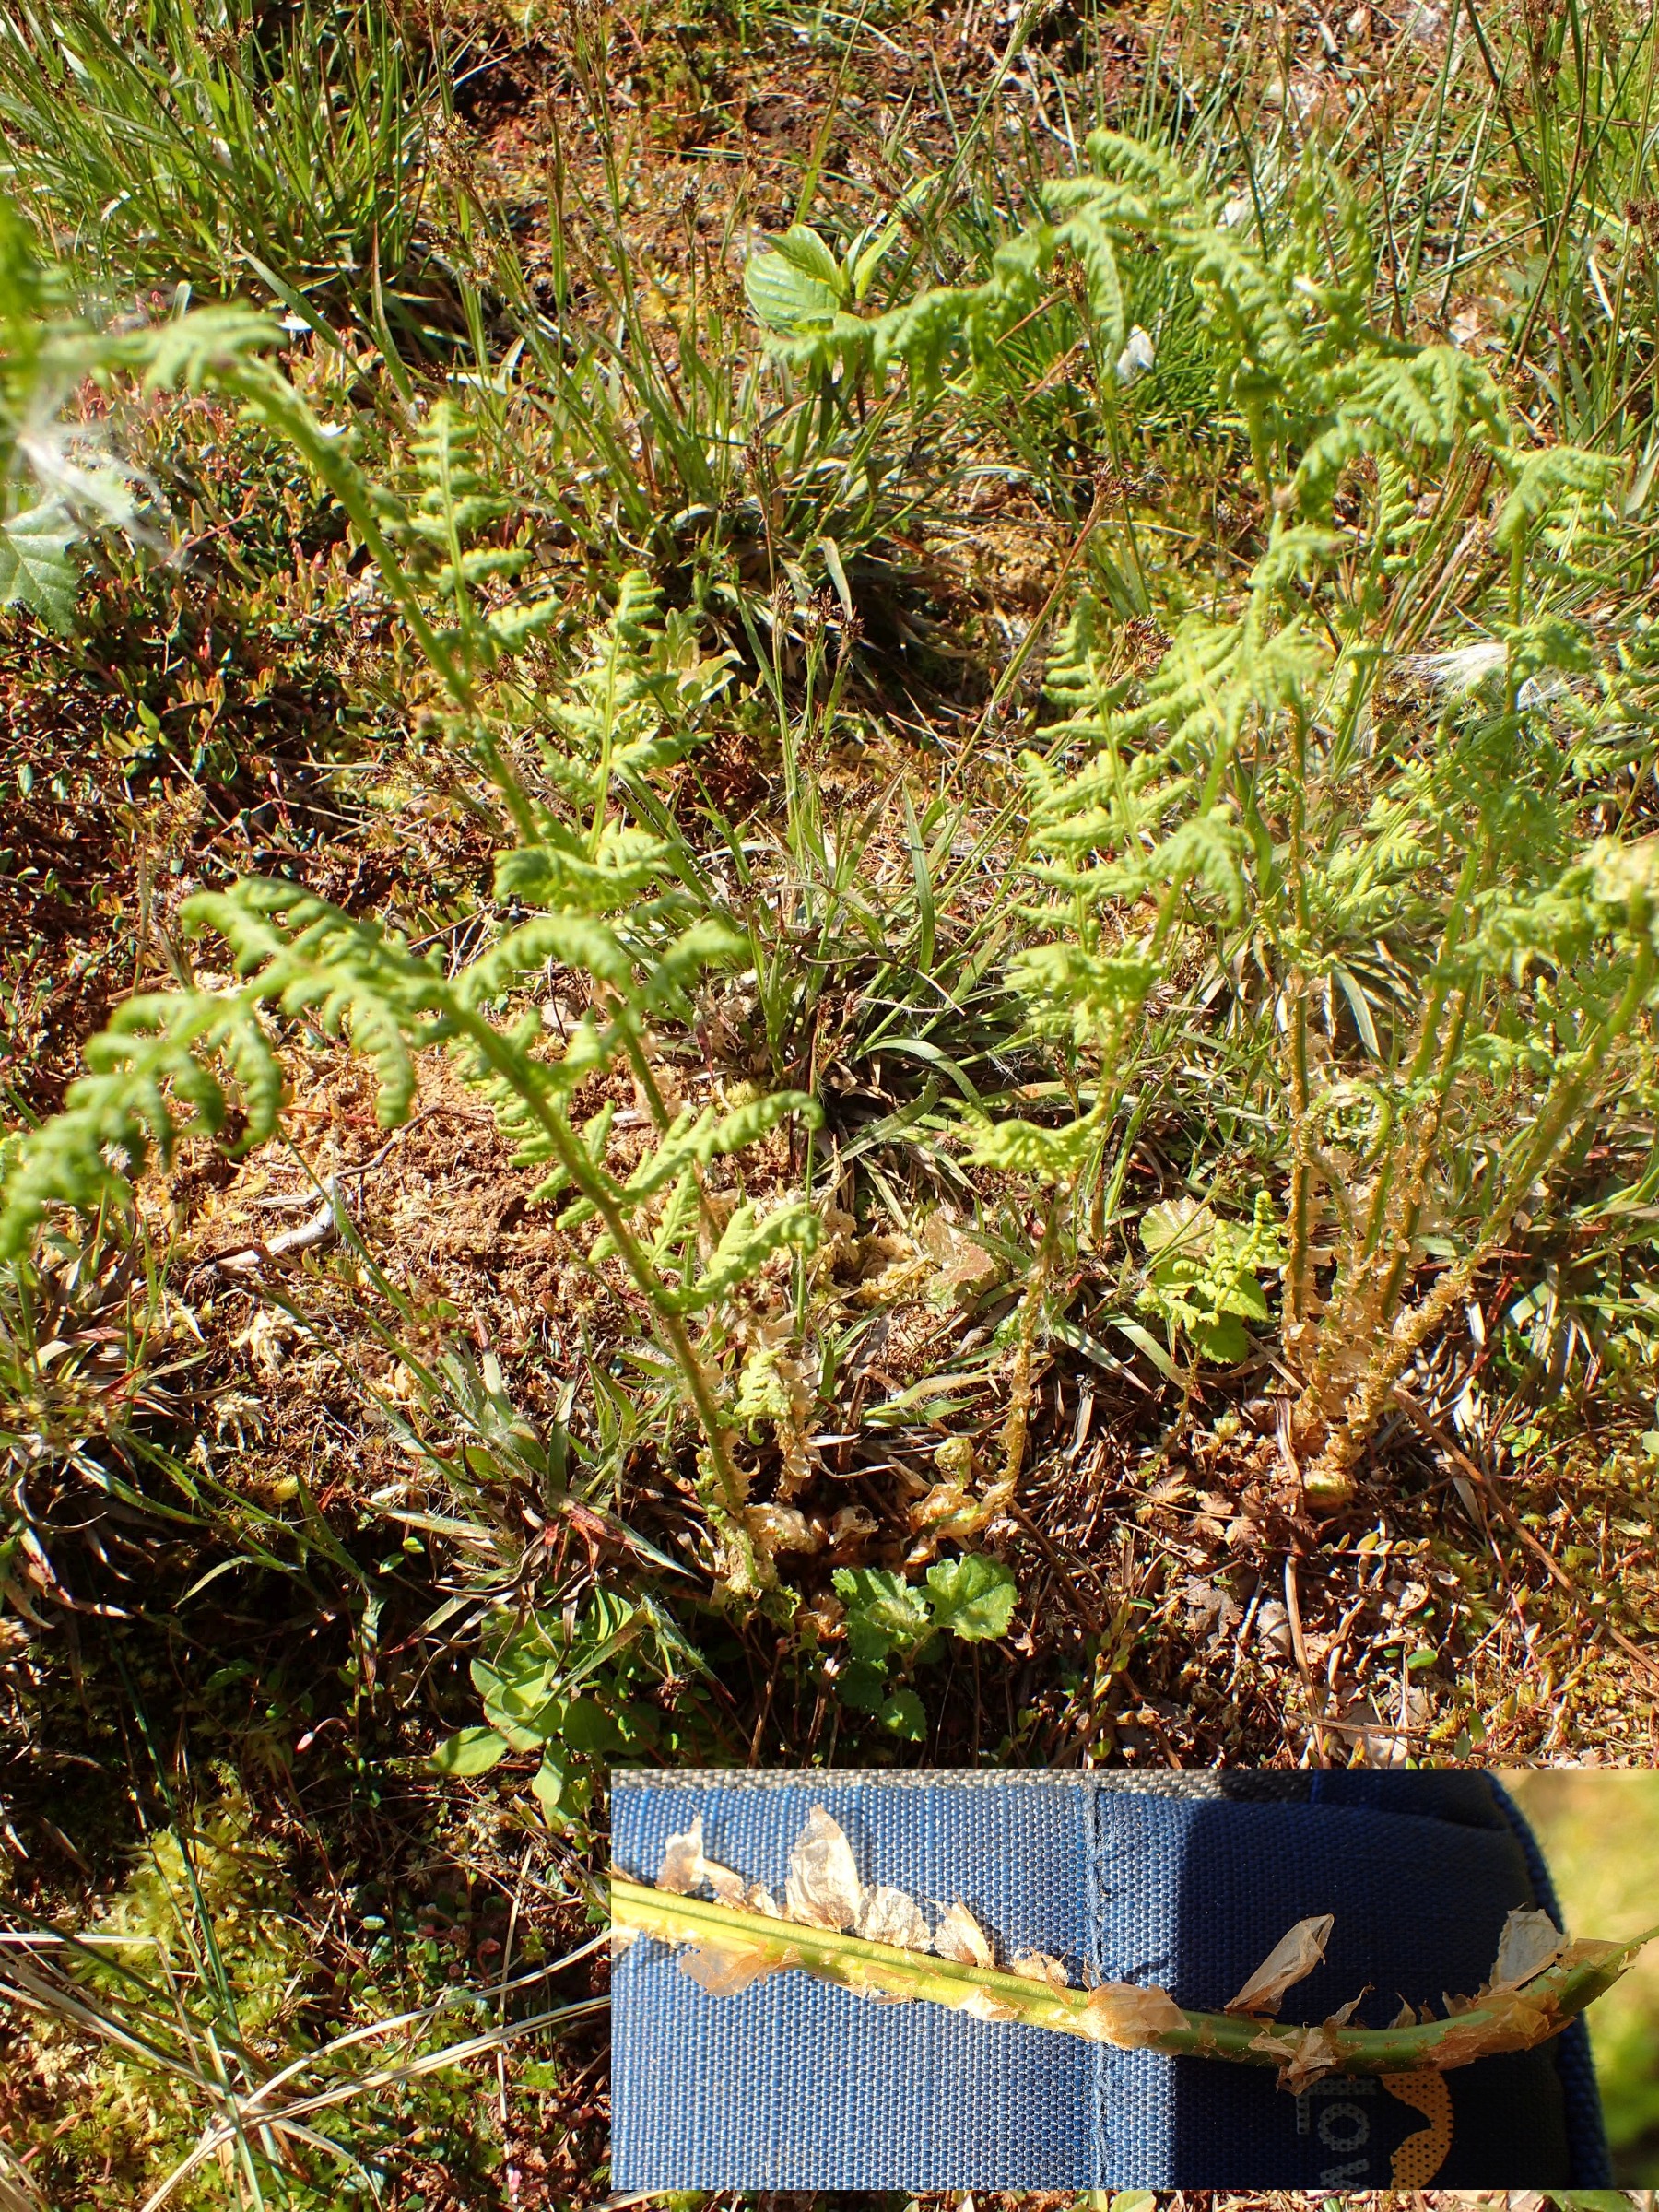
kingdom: Plantae
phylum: Tracheophyta
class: Polypodiopsida
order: Polypodiales
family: Dryopteridaceae
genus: Dryopteris
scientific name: Dryopteris carthusiana
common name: Smalbladet mangeløv
